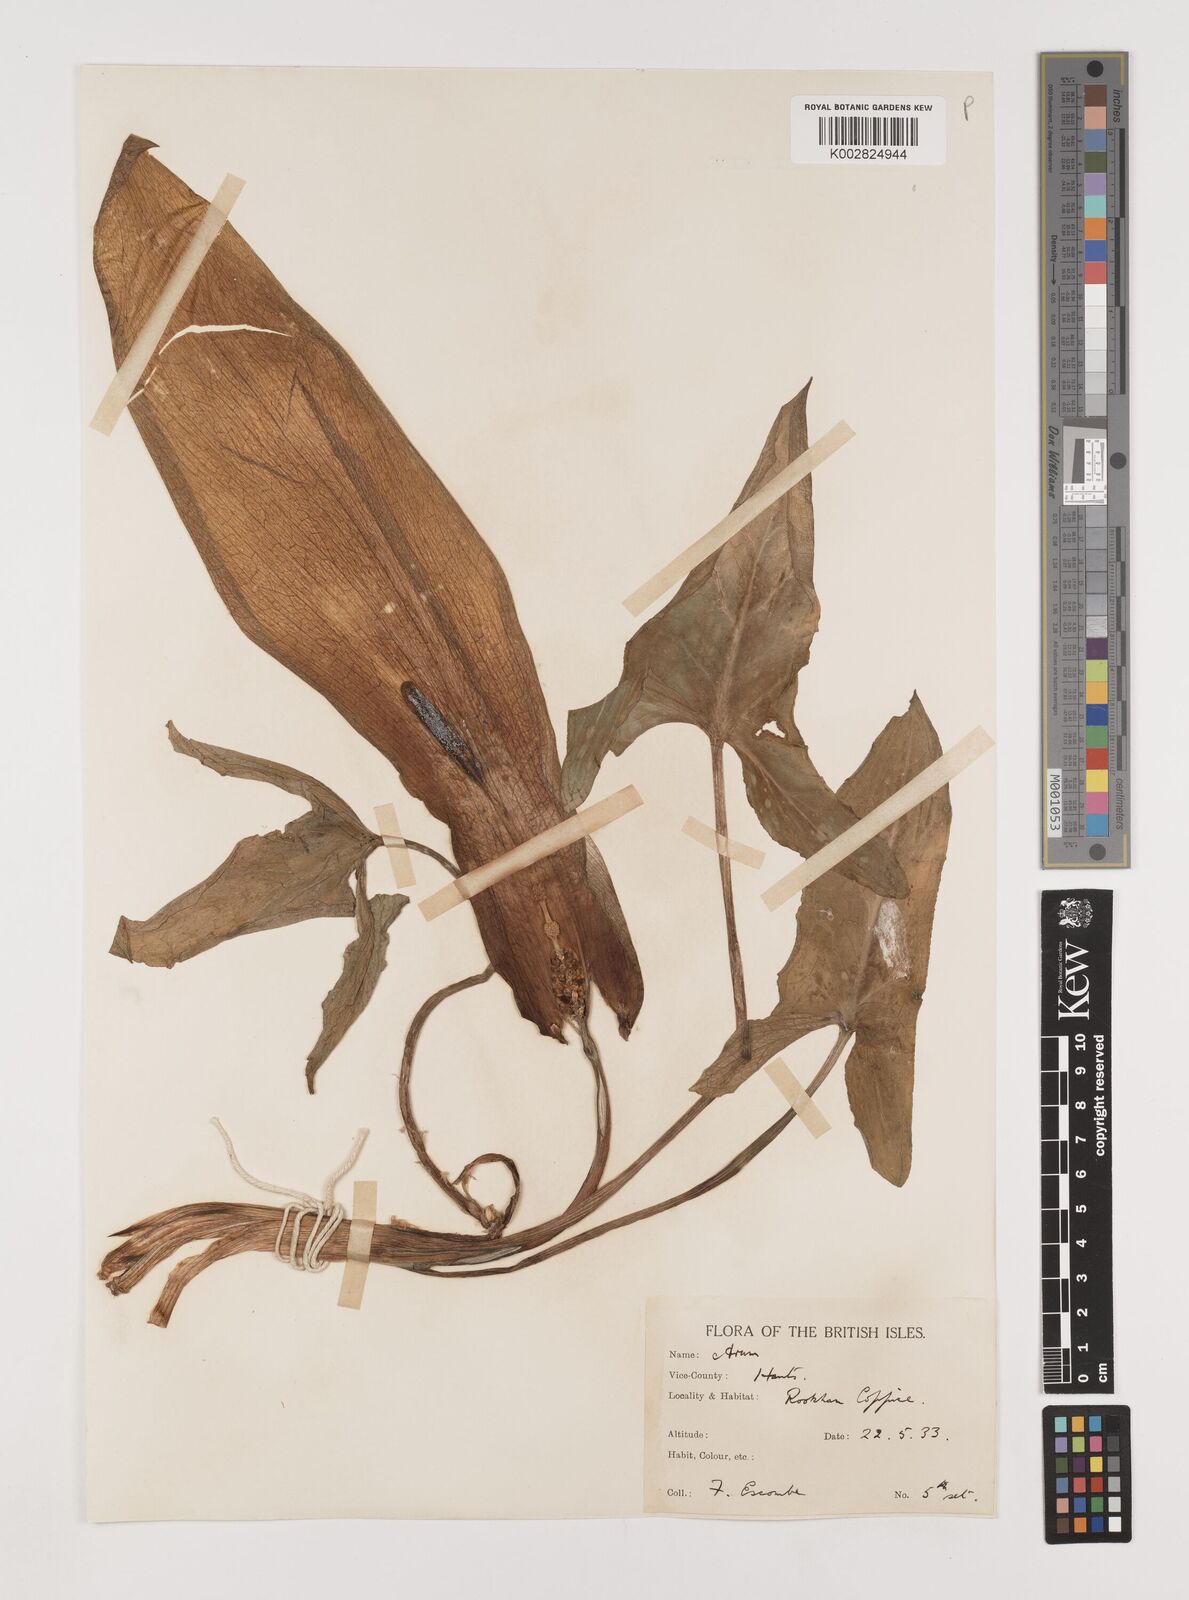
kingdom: Plantae
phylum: Tracheophyta
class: Liliopsida
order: Alismatales
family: Araceae
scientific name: Araceae
